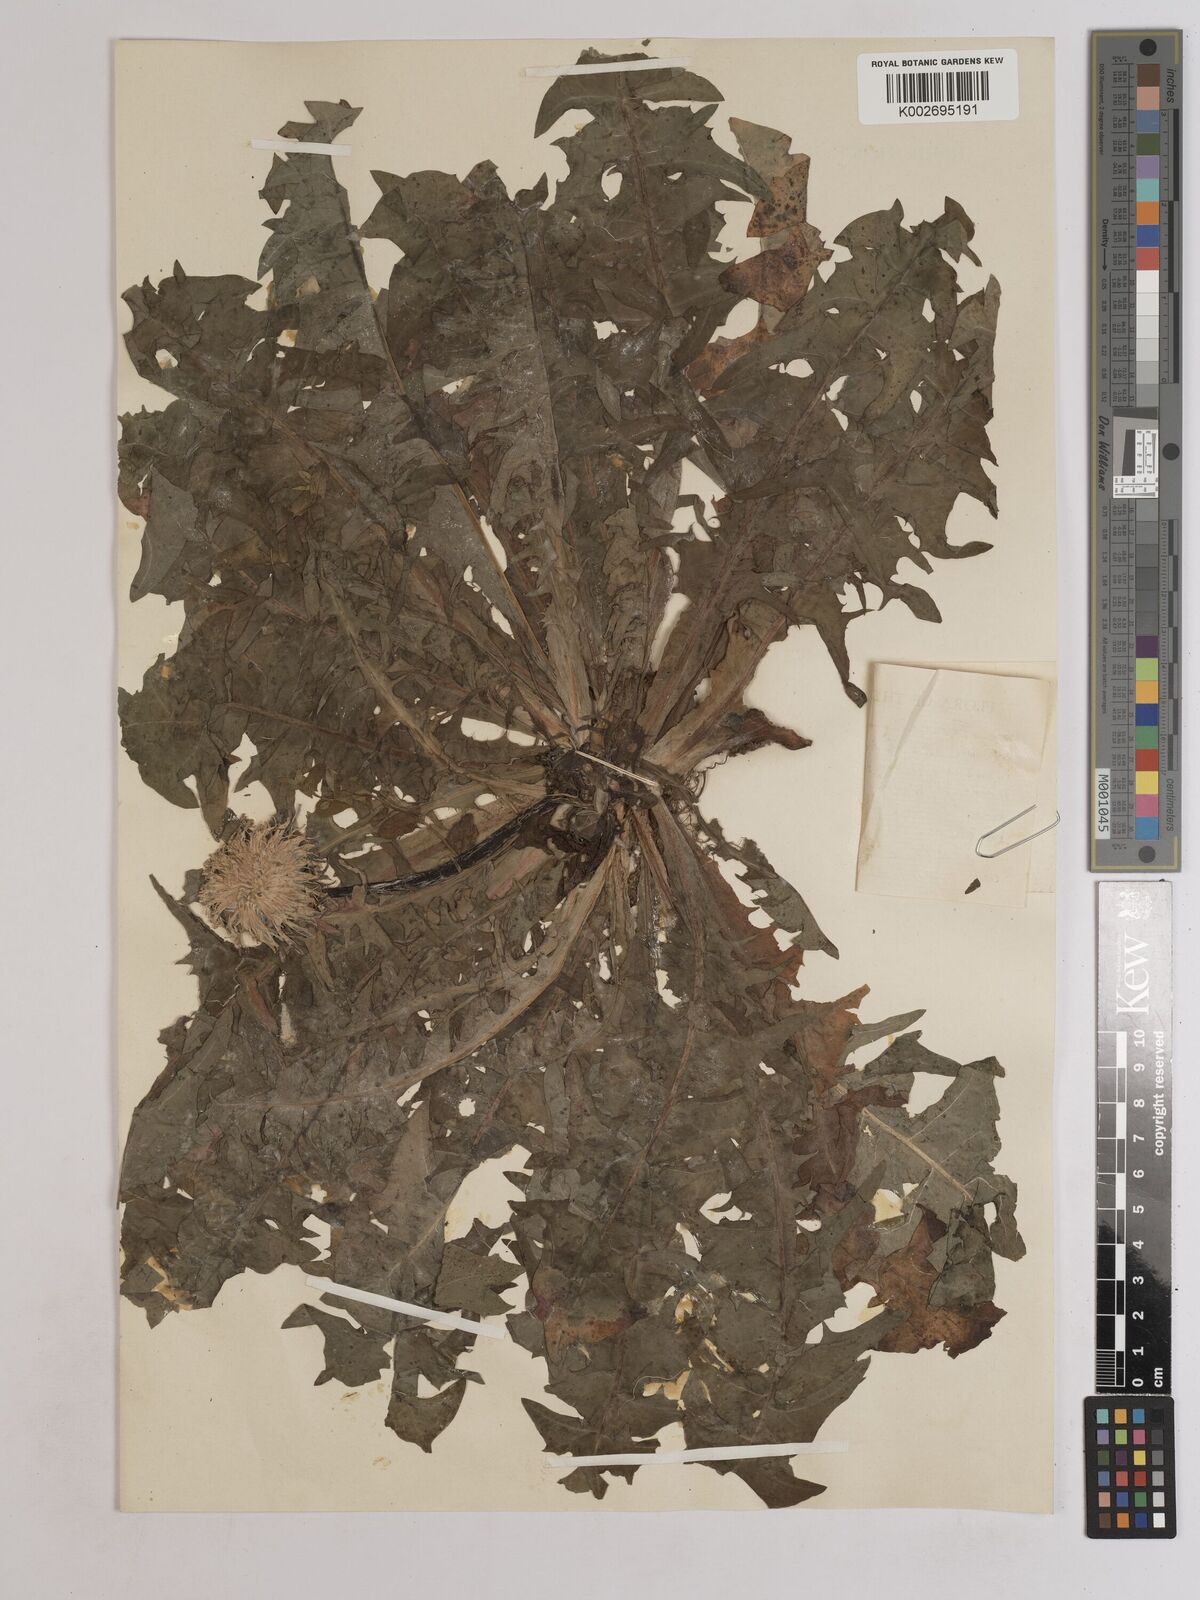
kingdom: Plantae
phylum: Tracheophyta
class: Magnoliopsida
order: Asterales
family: Asteraceae
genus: Taraxacum
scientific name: Taraxacum officinale
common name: Common dandelion
